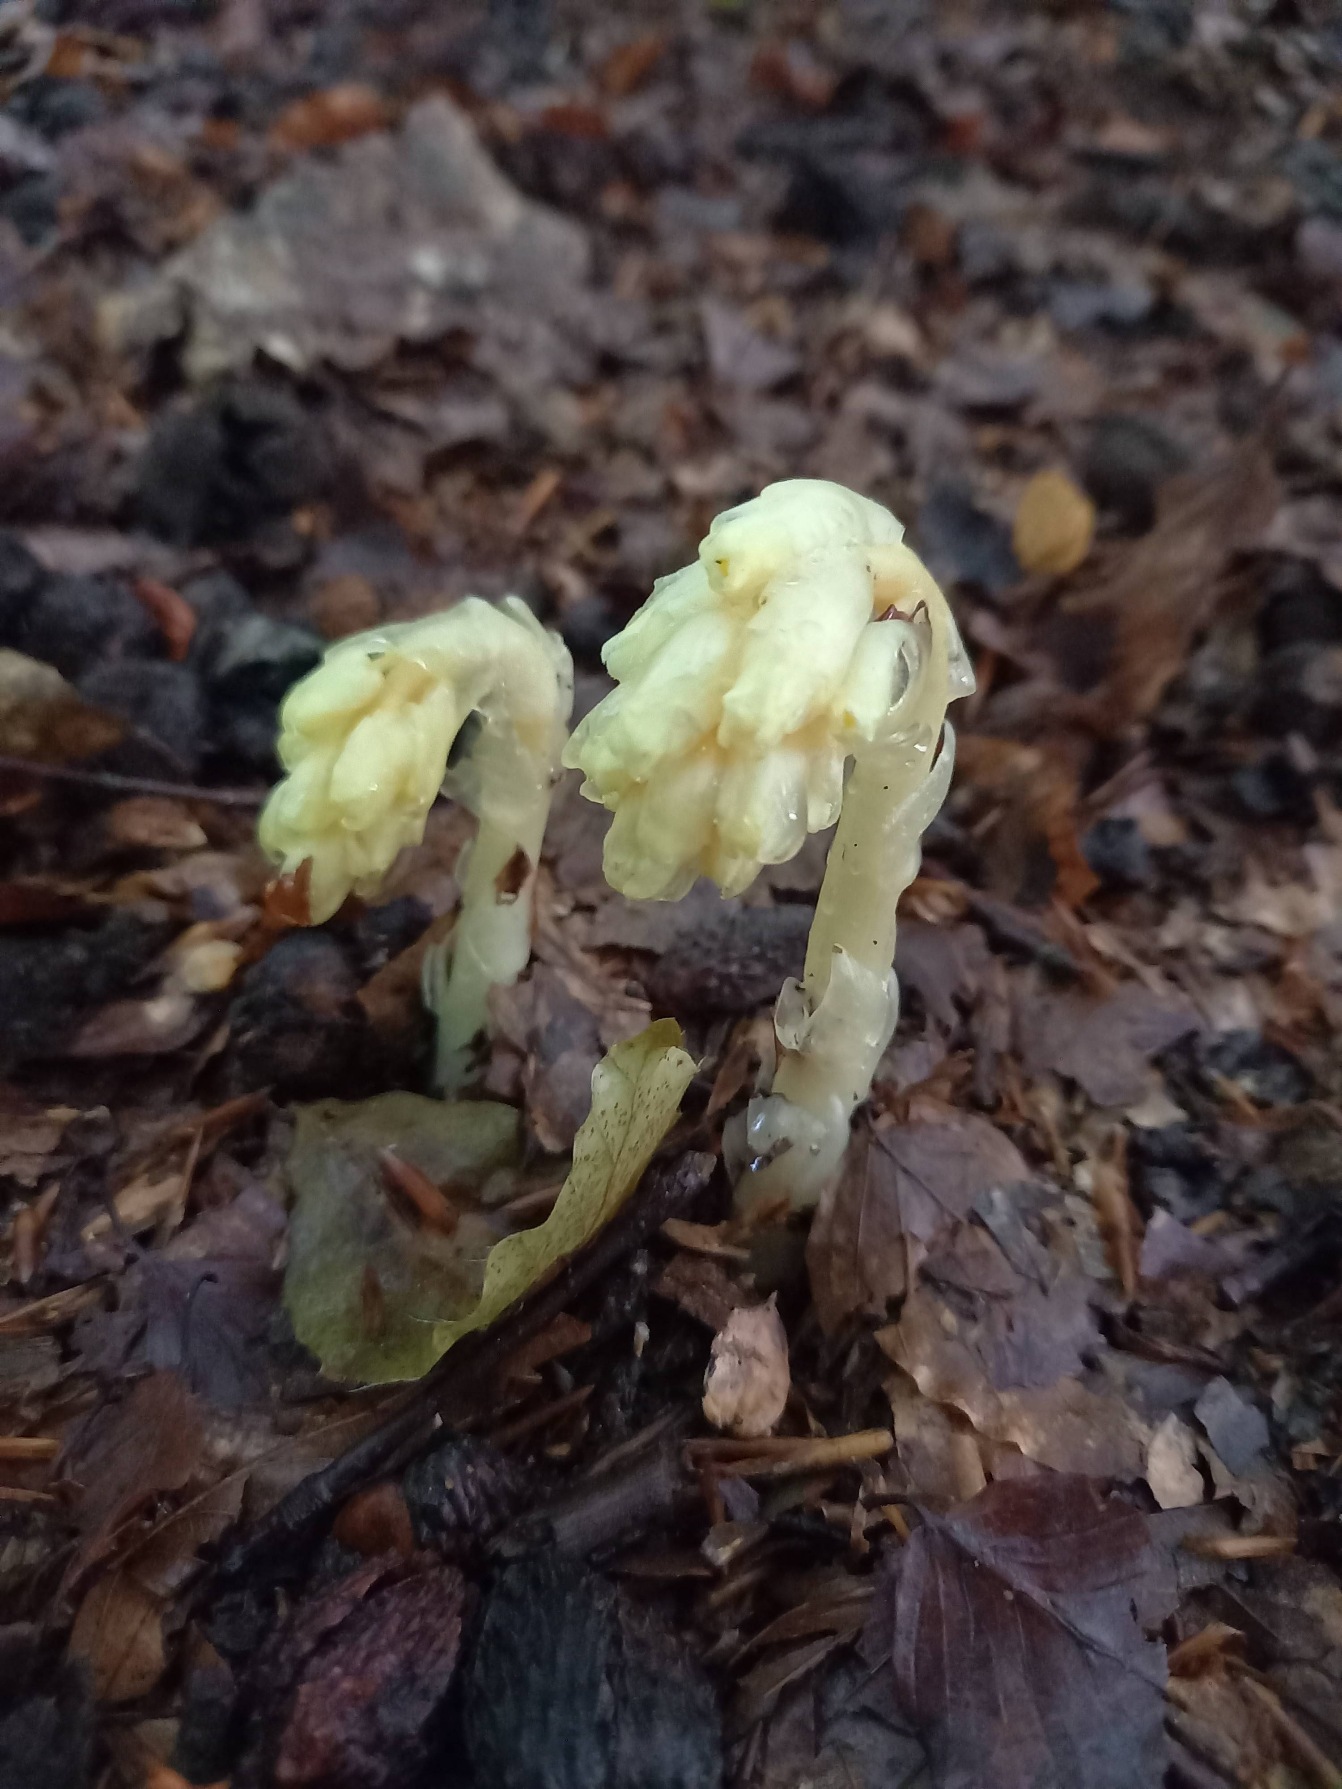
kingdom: Plantae
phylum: Tracheophyta
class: Magnoliopsida
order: Ericales
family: Ericaceae
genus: Hypopitys
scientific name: Hypopitys monotropa
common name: Snylterod
